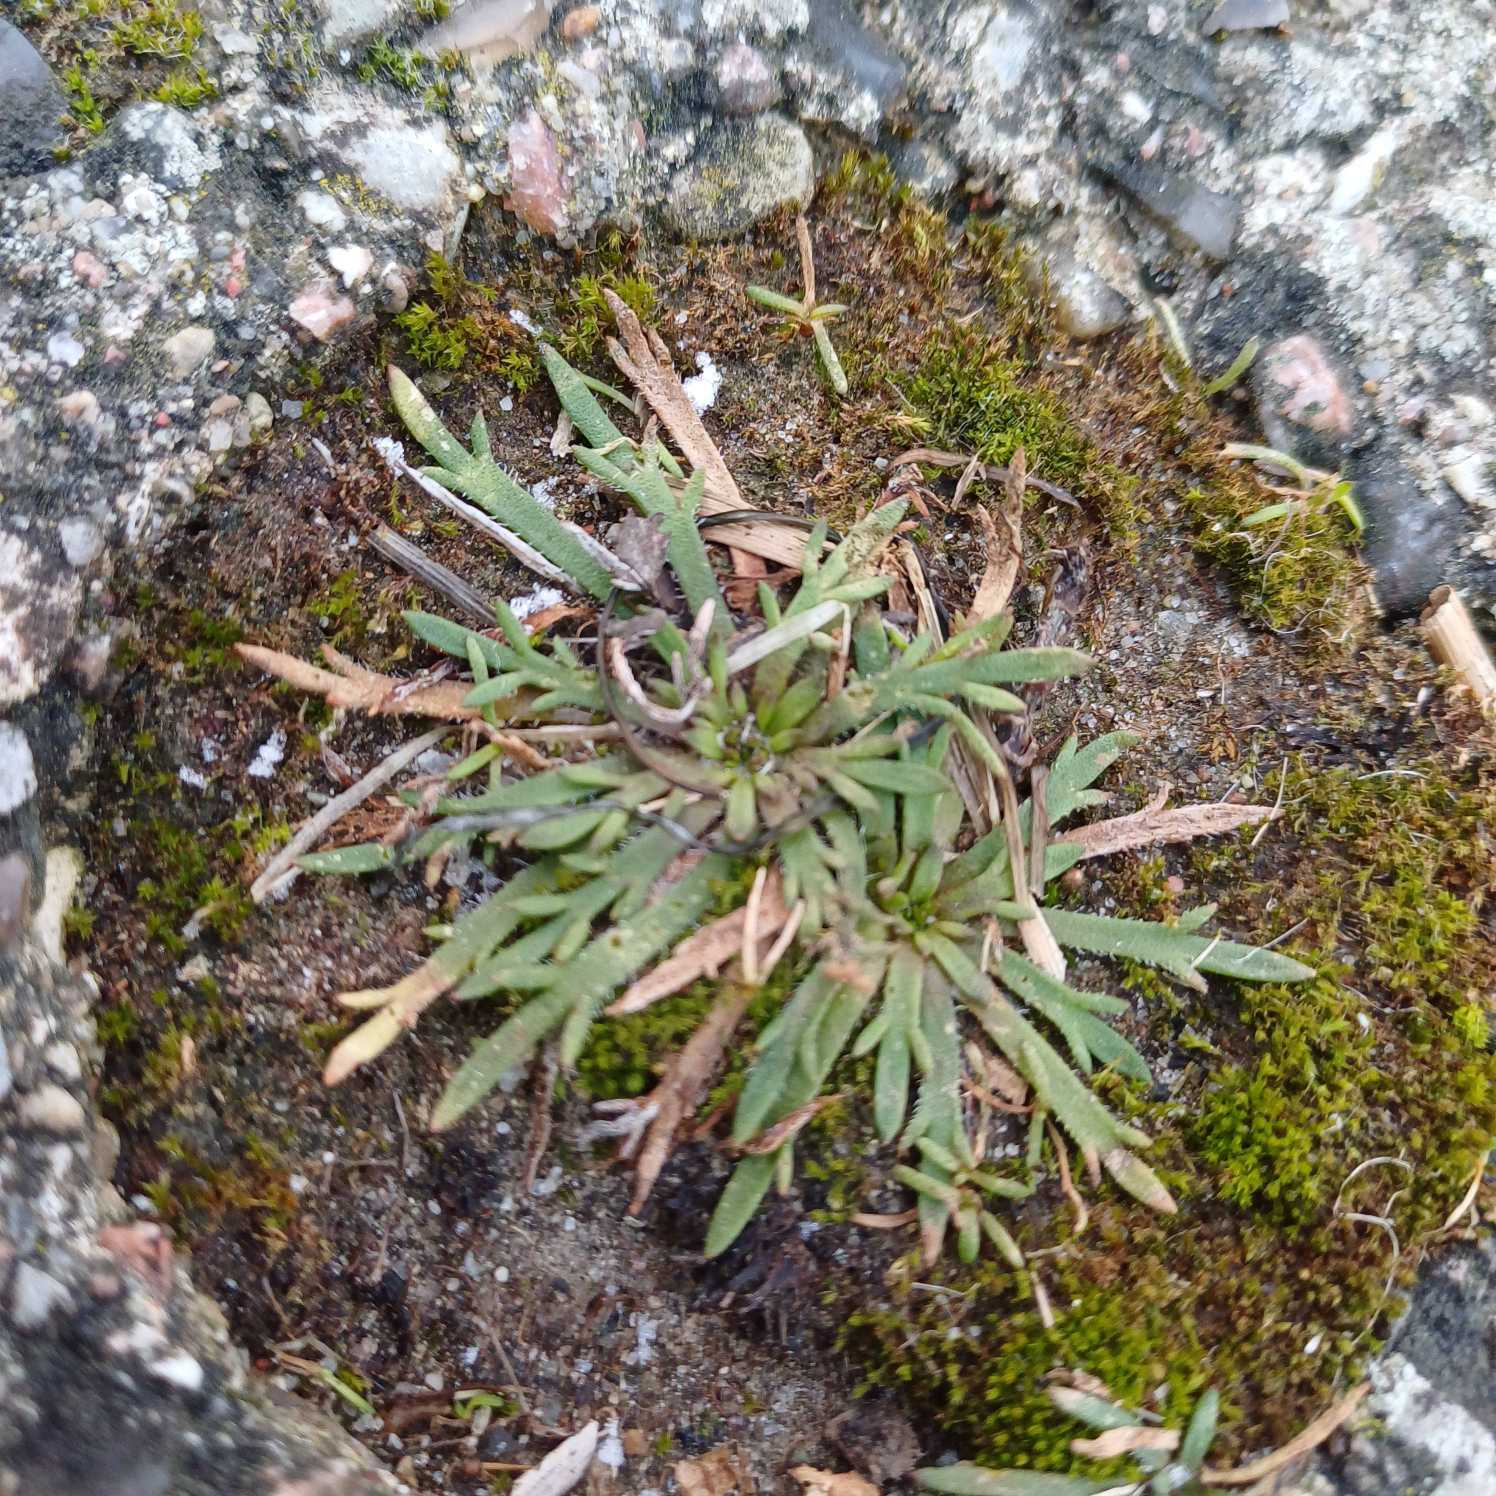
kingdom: Plantae
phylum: Tracheophyta
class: Magnoliopsida
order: Lamiales
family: Plantaginaceae
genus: Plantago
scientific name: Plantago coronopus
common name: Fliget vejbred
